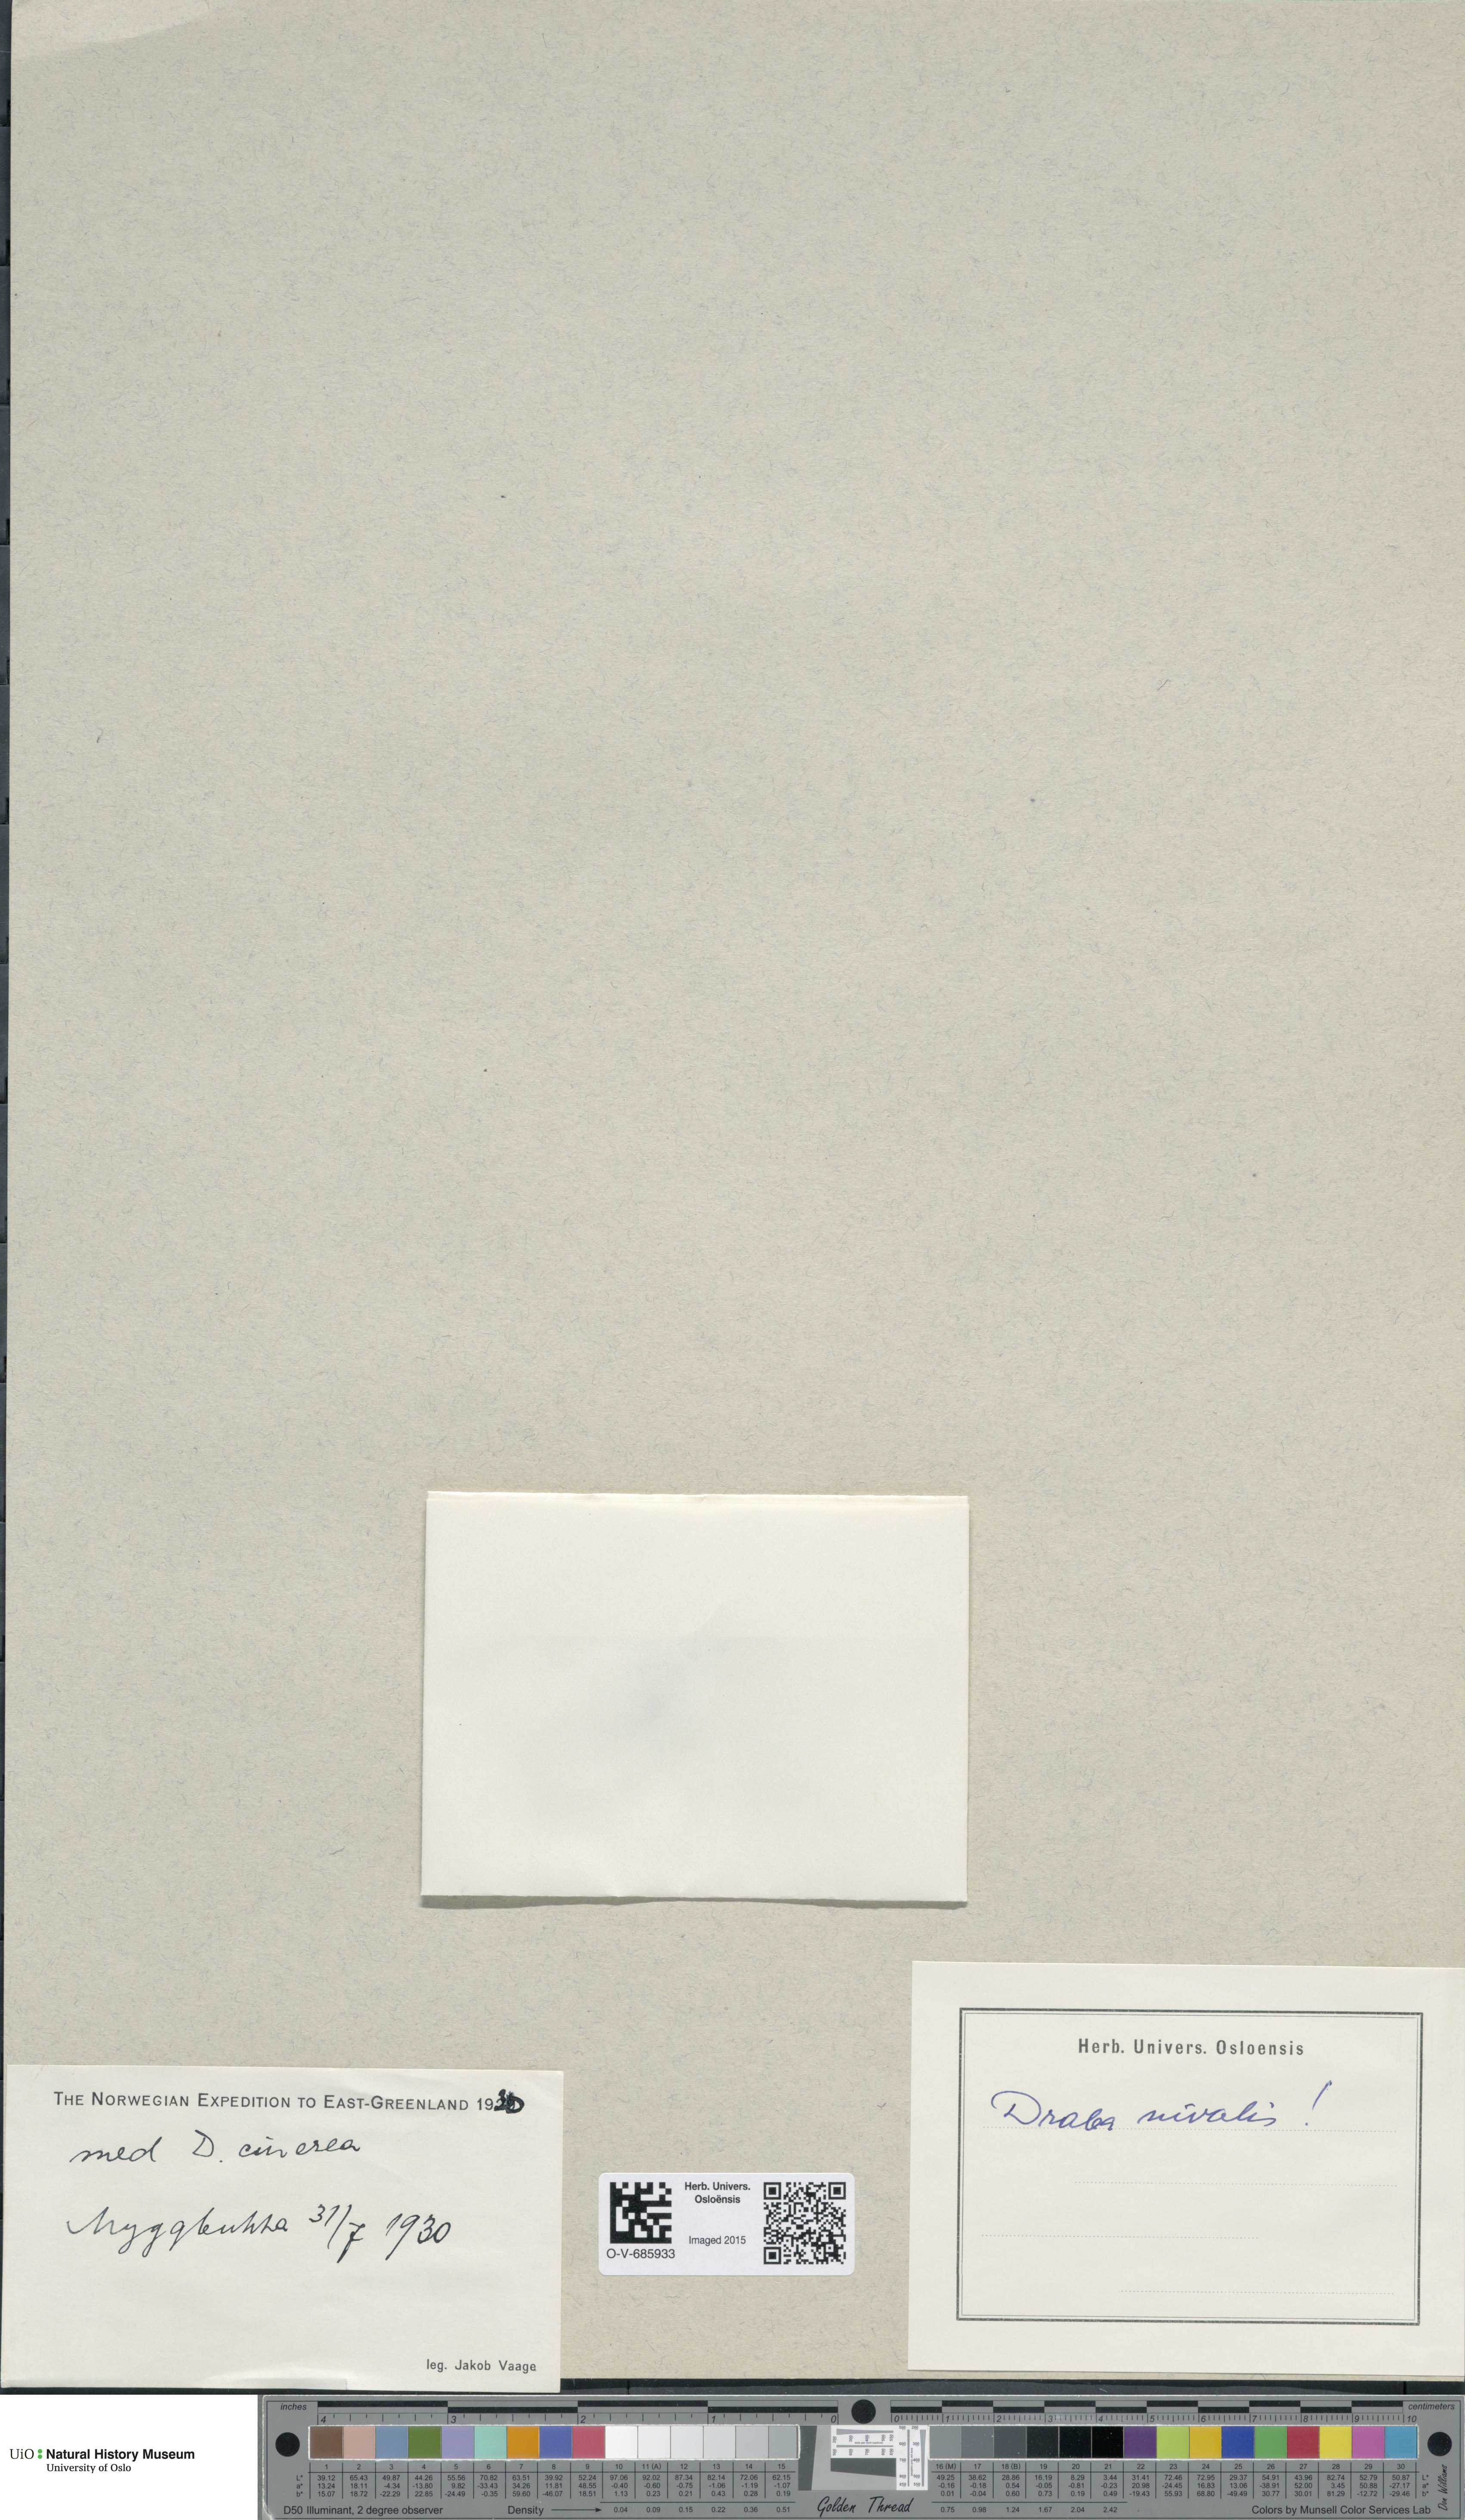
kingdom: Plantae
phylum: Tracheophyta
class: Magnoliopsida
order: Brassicales
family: Brassicaceae
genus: Draba
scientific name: Draba nivalis
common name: Snow draba
